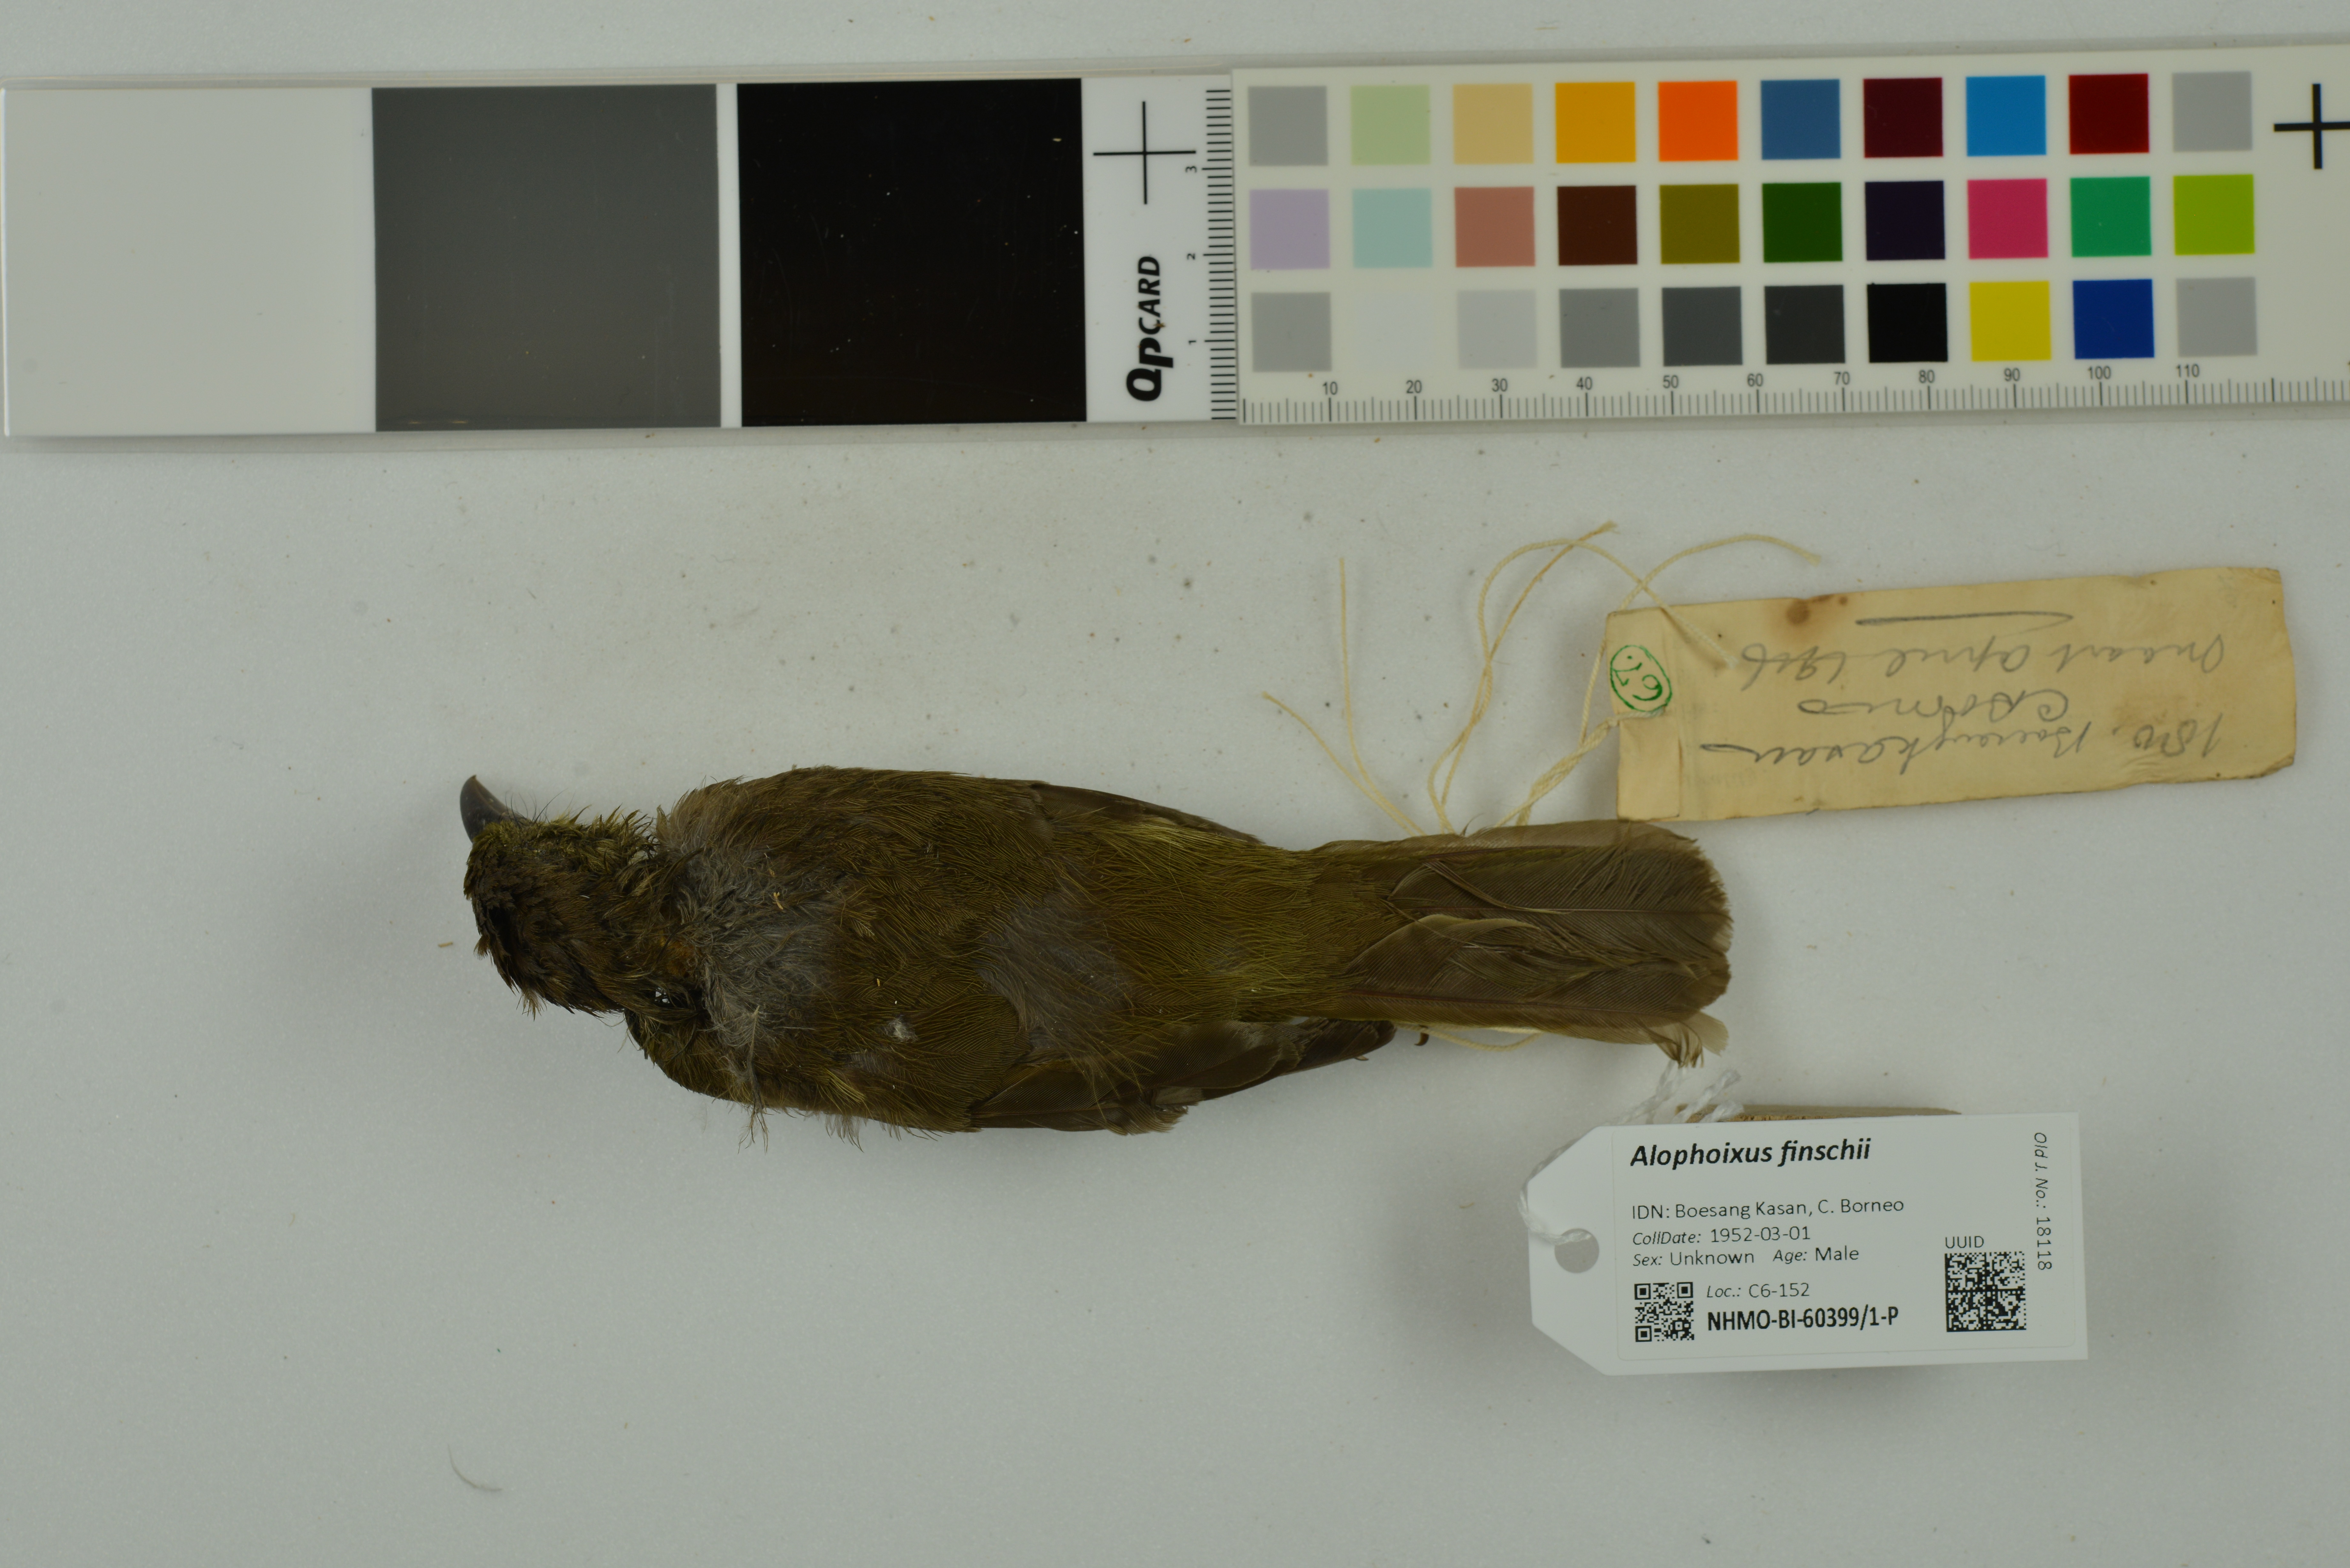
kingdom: Animalia
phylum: Chordata
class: Aves
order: Passeriformes
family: Pycnonotidae
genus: Alophoixus
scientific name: Alophoixus finschii
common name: Finsch's bulbul
